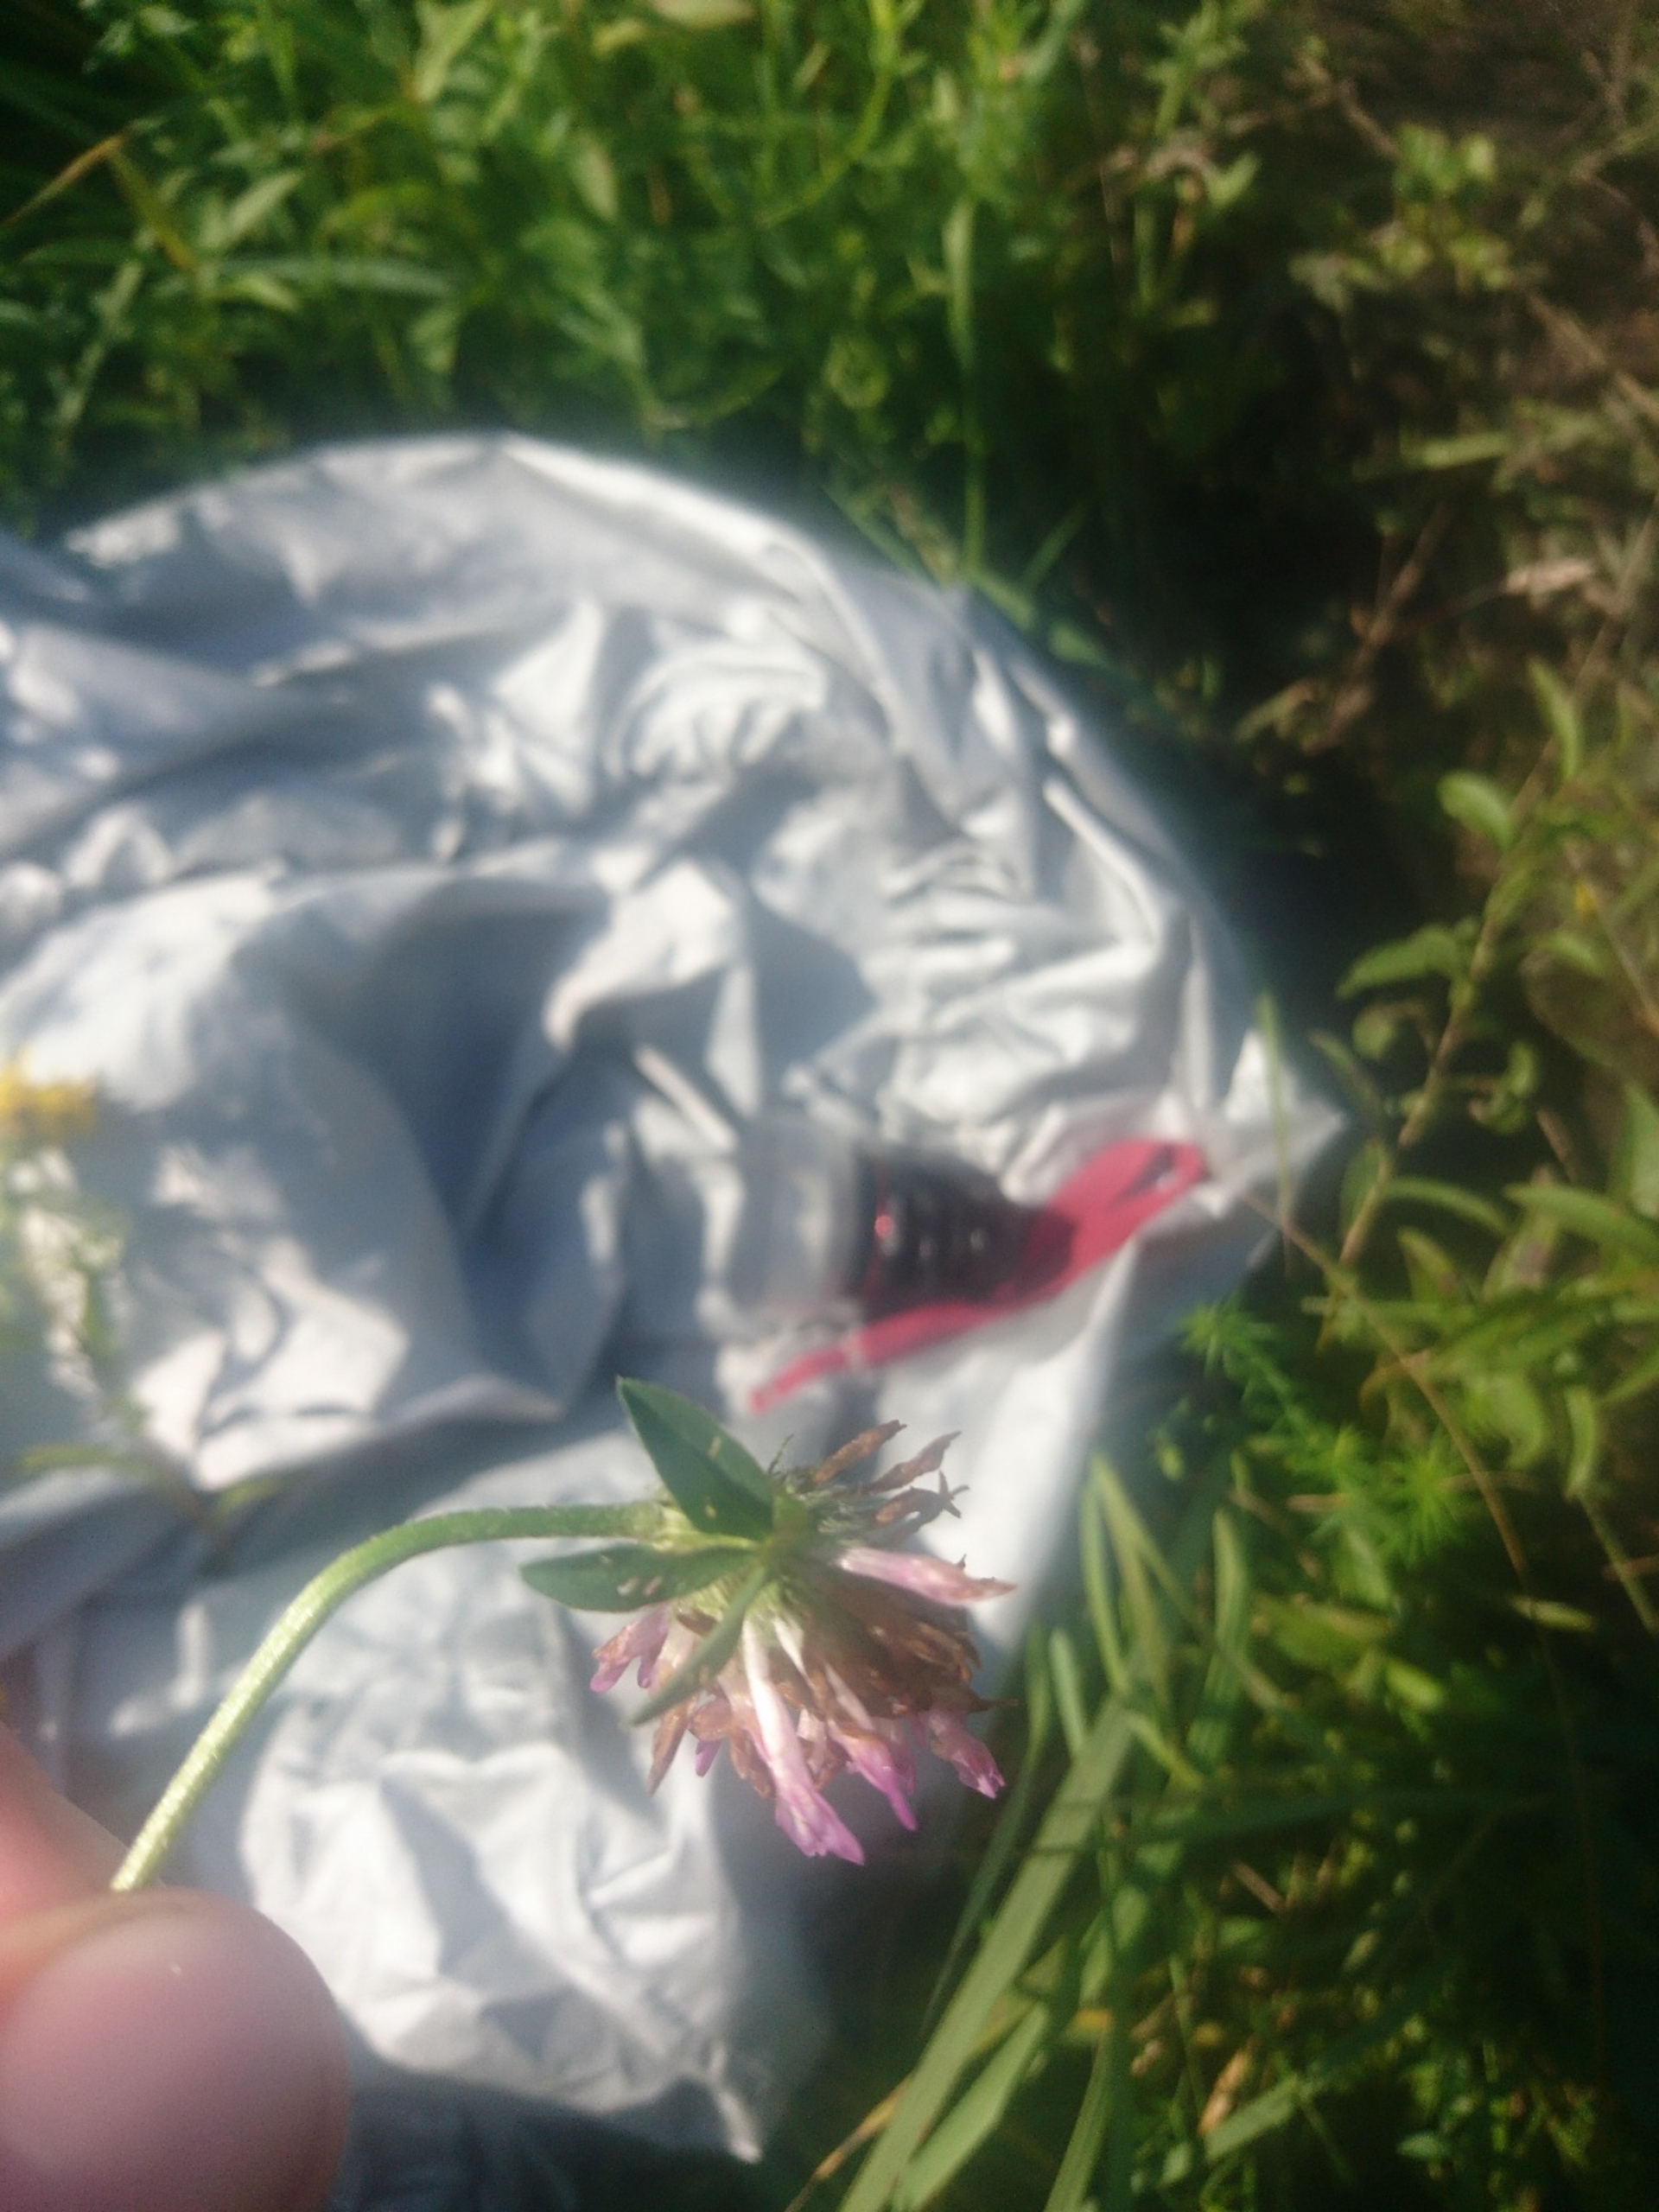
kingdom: Plantae
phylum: Tracheophyta
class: Magnoliopsida
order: Fabales
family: Fabaceae
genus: Trifolium
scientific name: Trifolium pratense
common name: Rød-kløver
